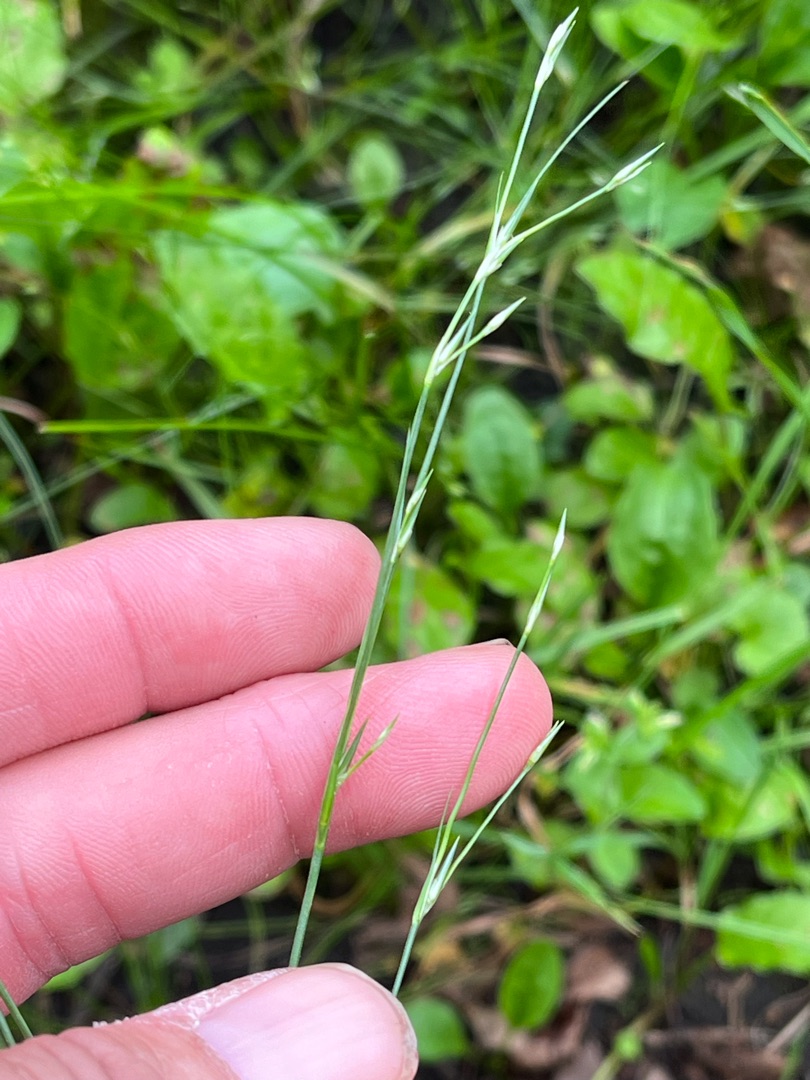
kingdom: Plantae
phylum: Tracheophyta
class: Liliopsida
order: Poales
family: Juncaceae
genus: Juncus
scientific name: Juncus bufonius
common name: Tudse-siv
